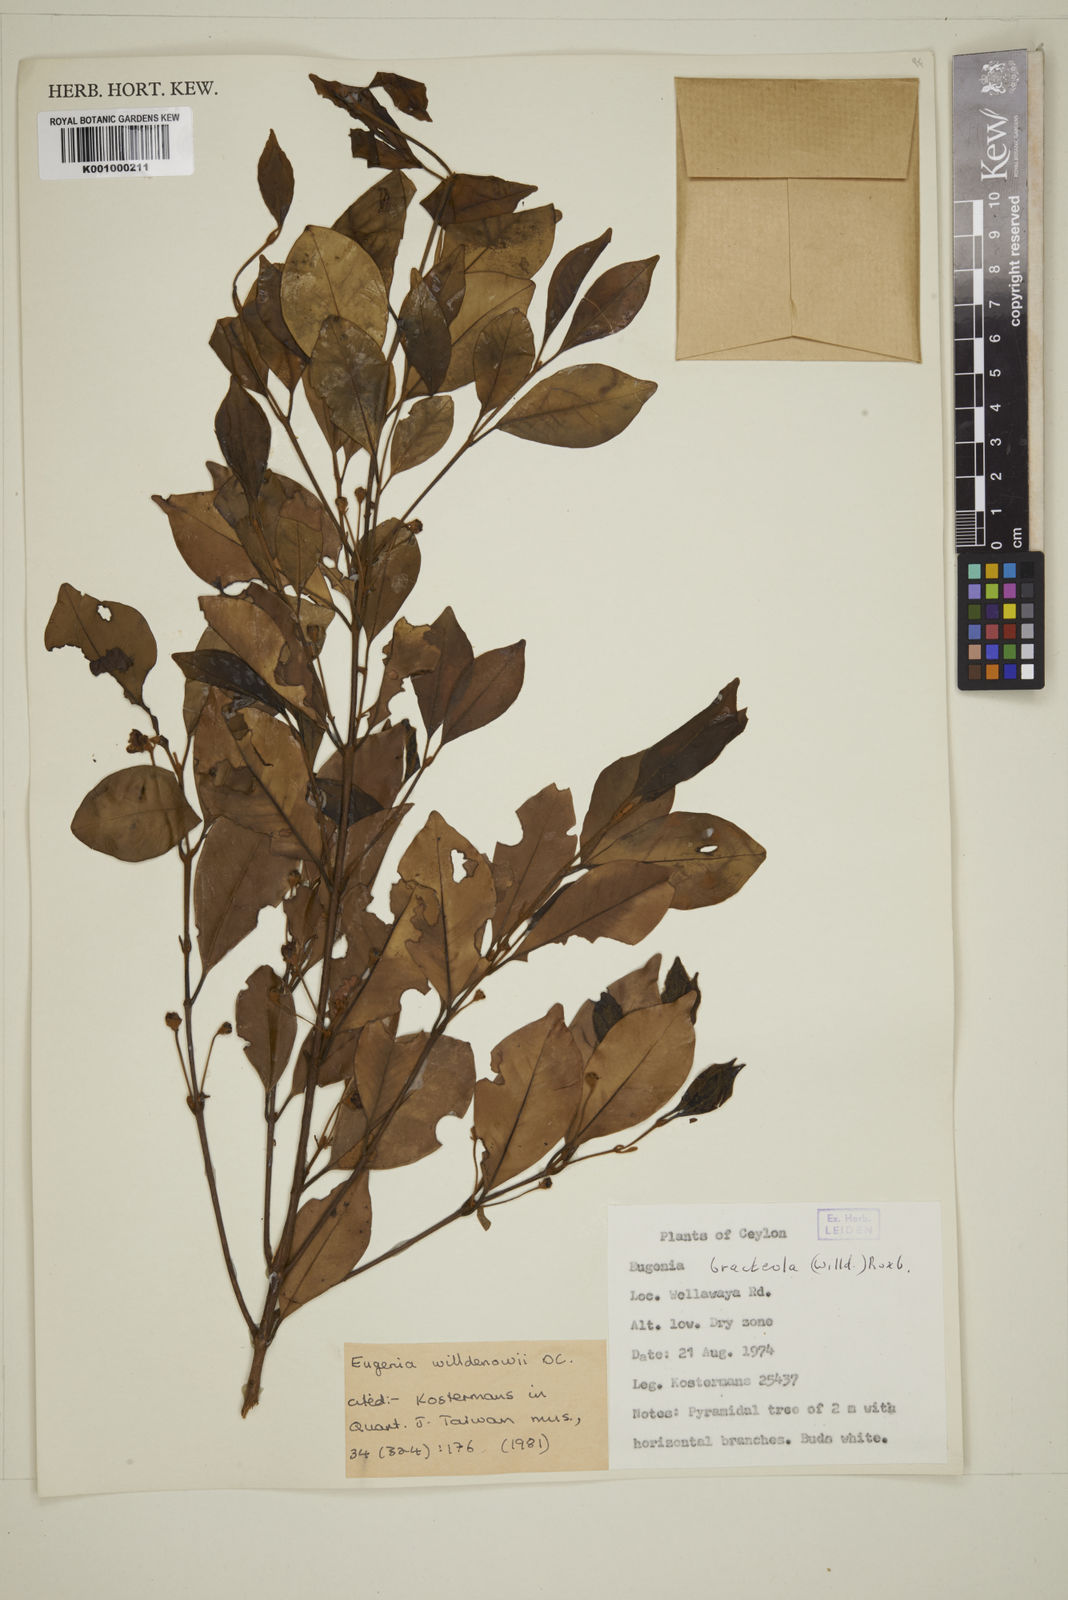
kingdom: Plantae
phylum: Tracheophyta
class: Magnoliopsida
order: Myrtales
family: Myrtaceae
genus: Eugenia
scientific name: Eugenia pseudopsidium
